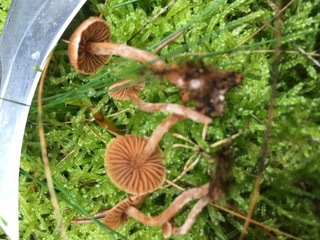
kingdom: Fungi
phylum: Basidiomycota
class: Agaricomycetes
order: Agaricales
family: Cortinariaceae
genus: Cortinarius
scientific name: Cortinarius
